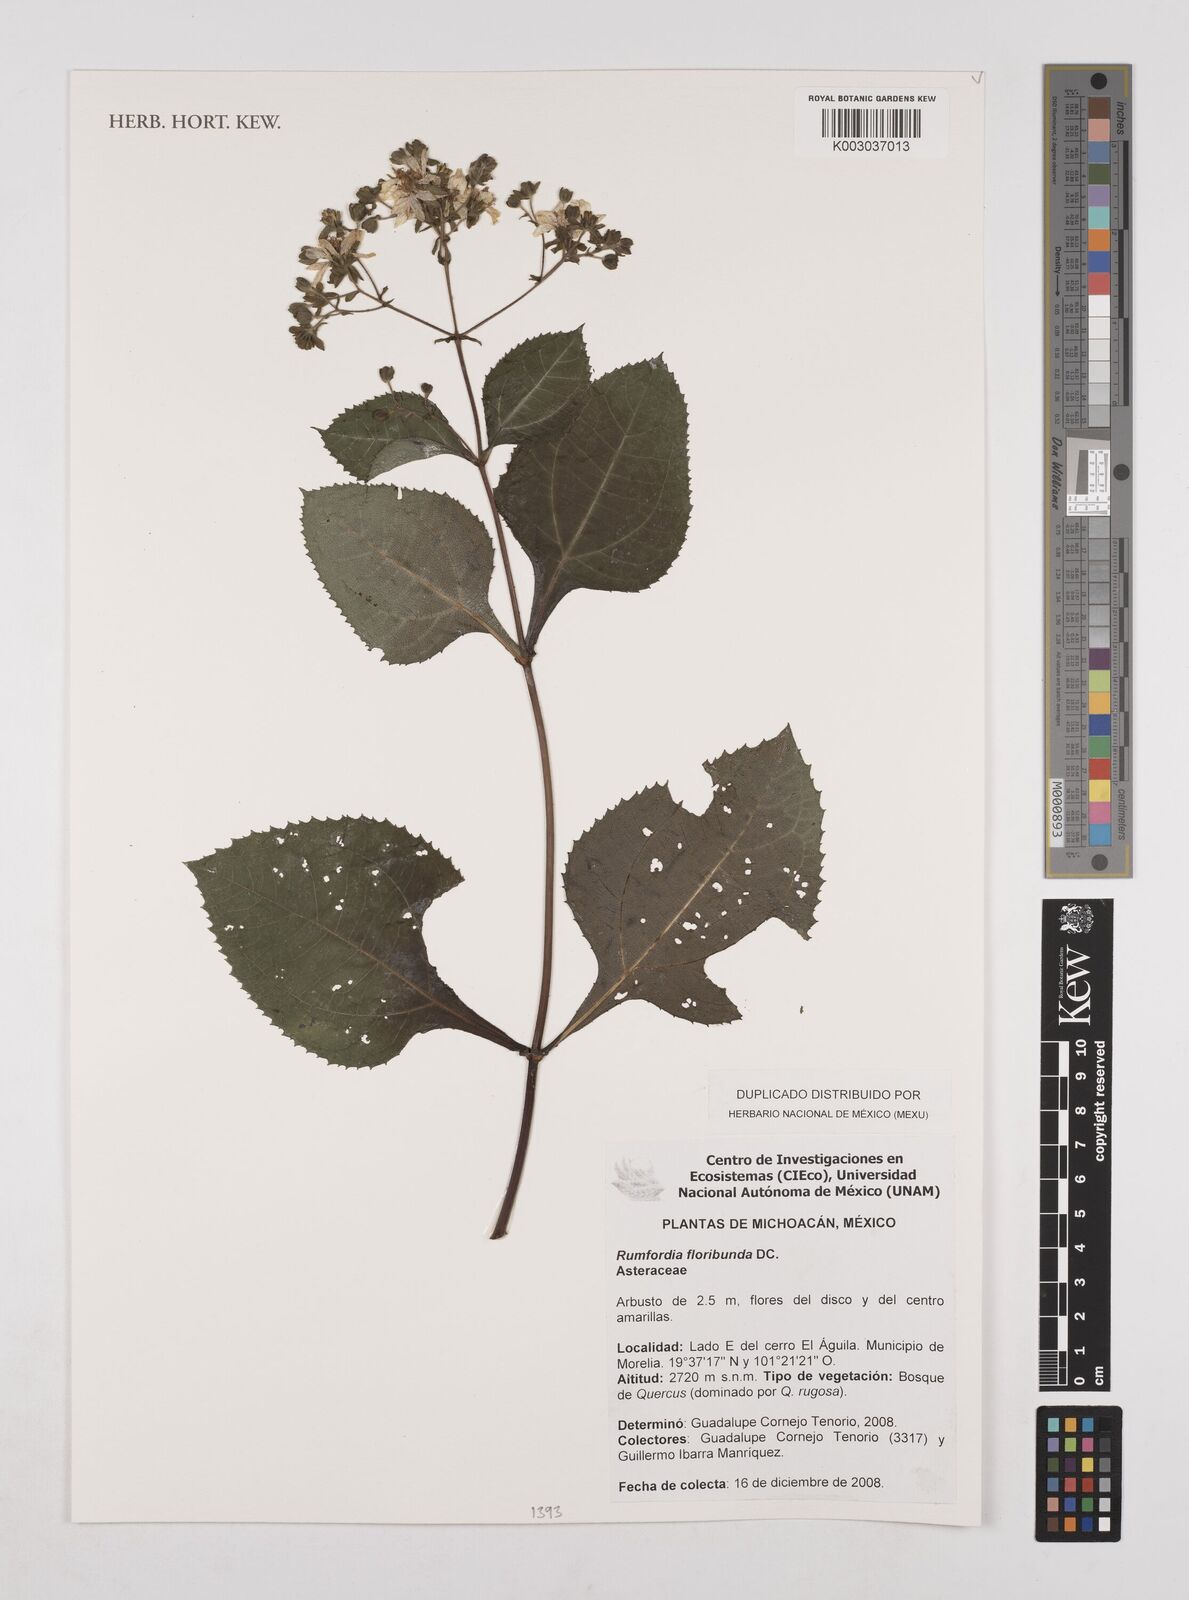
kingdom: Plantae
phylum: Tracheophyta
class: Magnoliopsida
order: Asterales
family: Asteraceae
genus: Rumfordia
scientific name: Rumfordia floribunda
